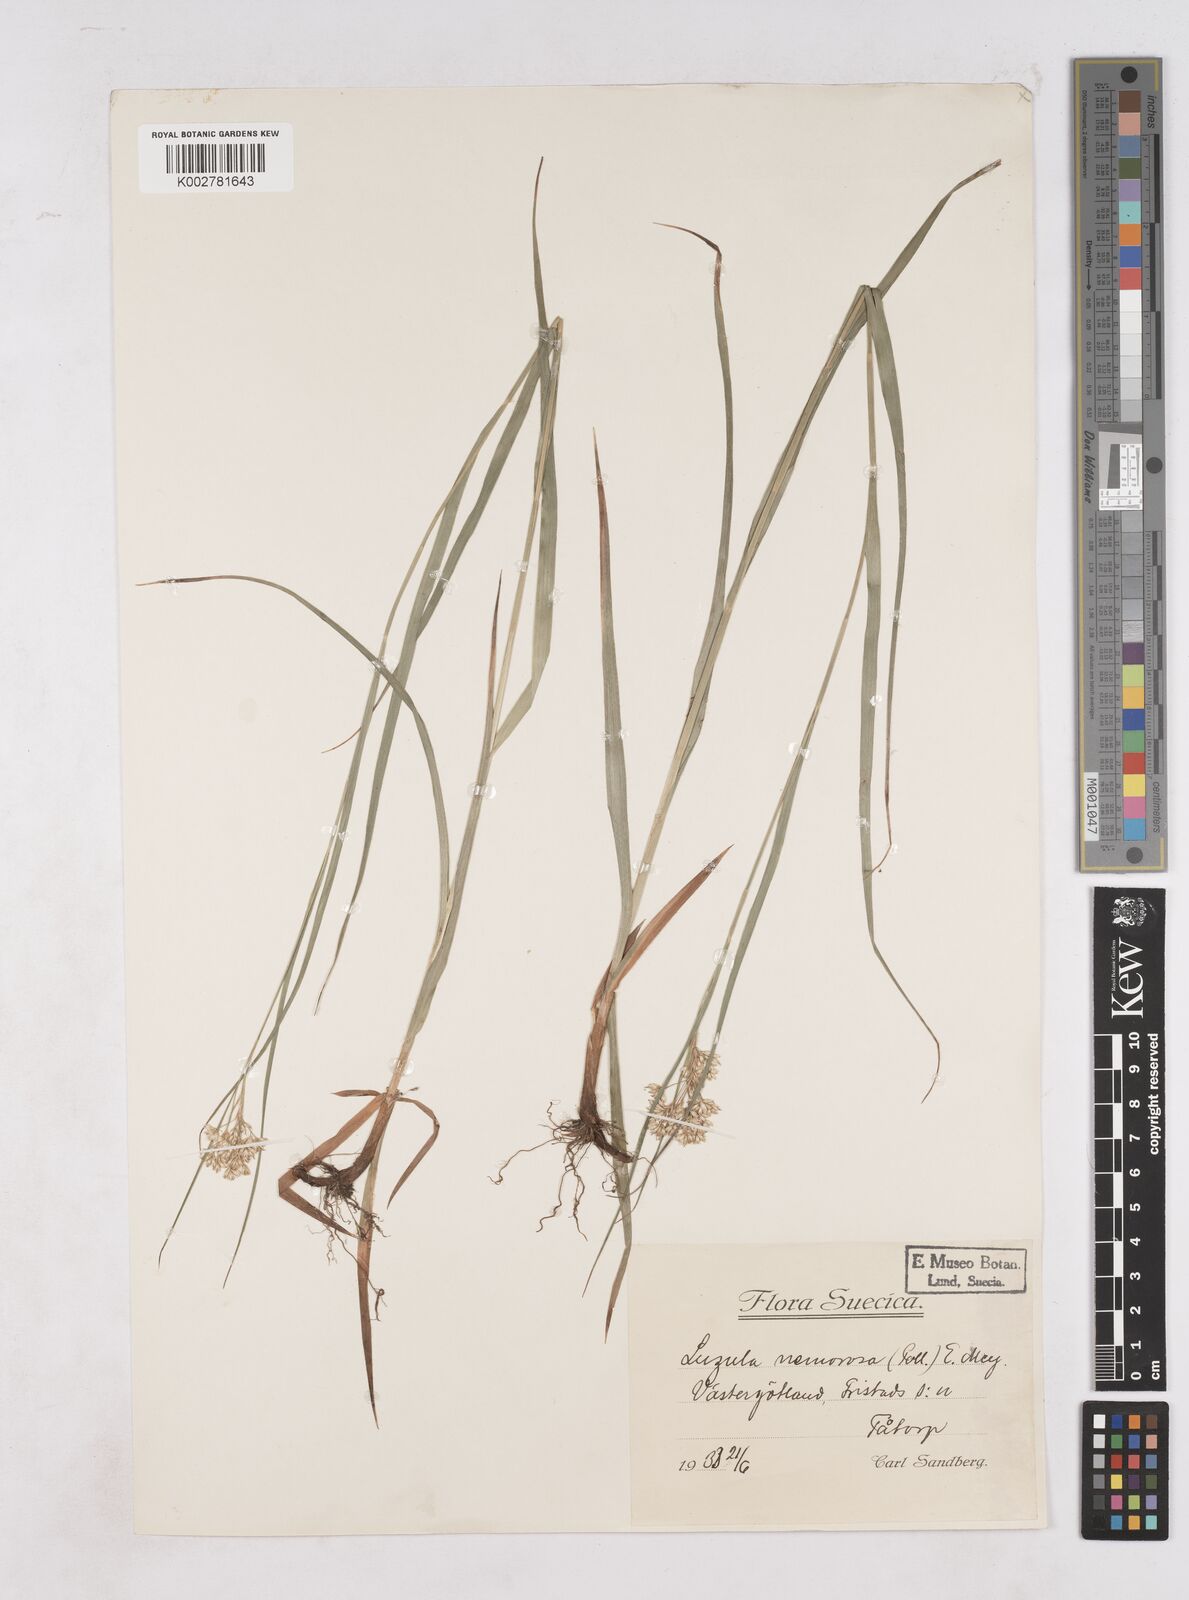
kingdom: Plantae
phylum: Tracheophyta
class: Liliopsida
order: Poales
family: Juncaceae
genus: Luzula
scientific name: Luzula luzuloides
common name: White wood-rush
